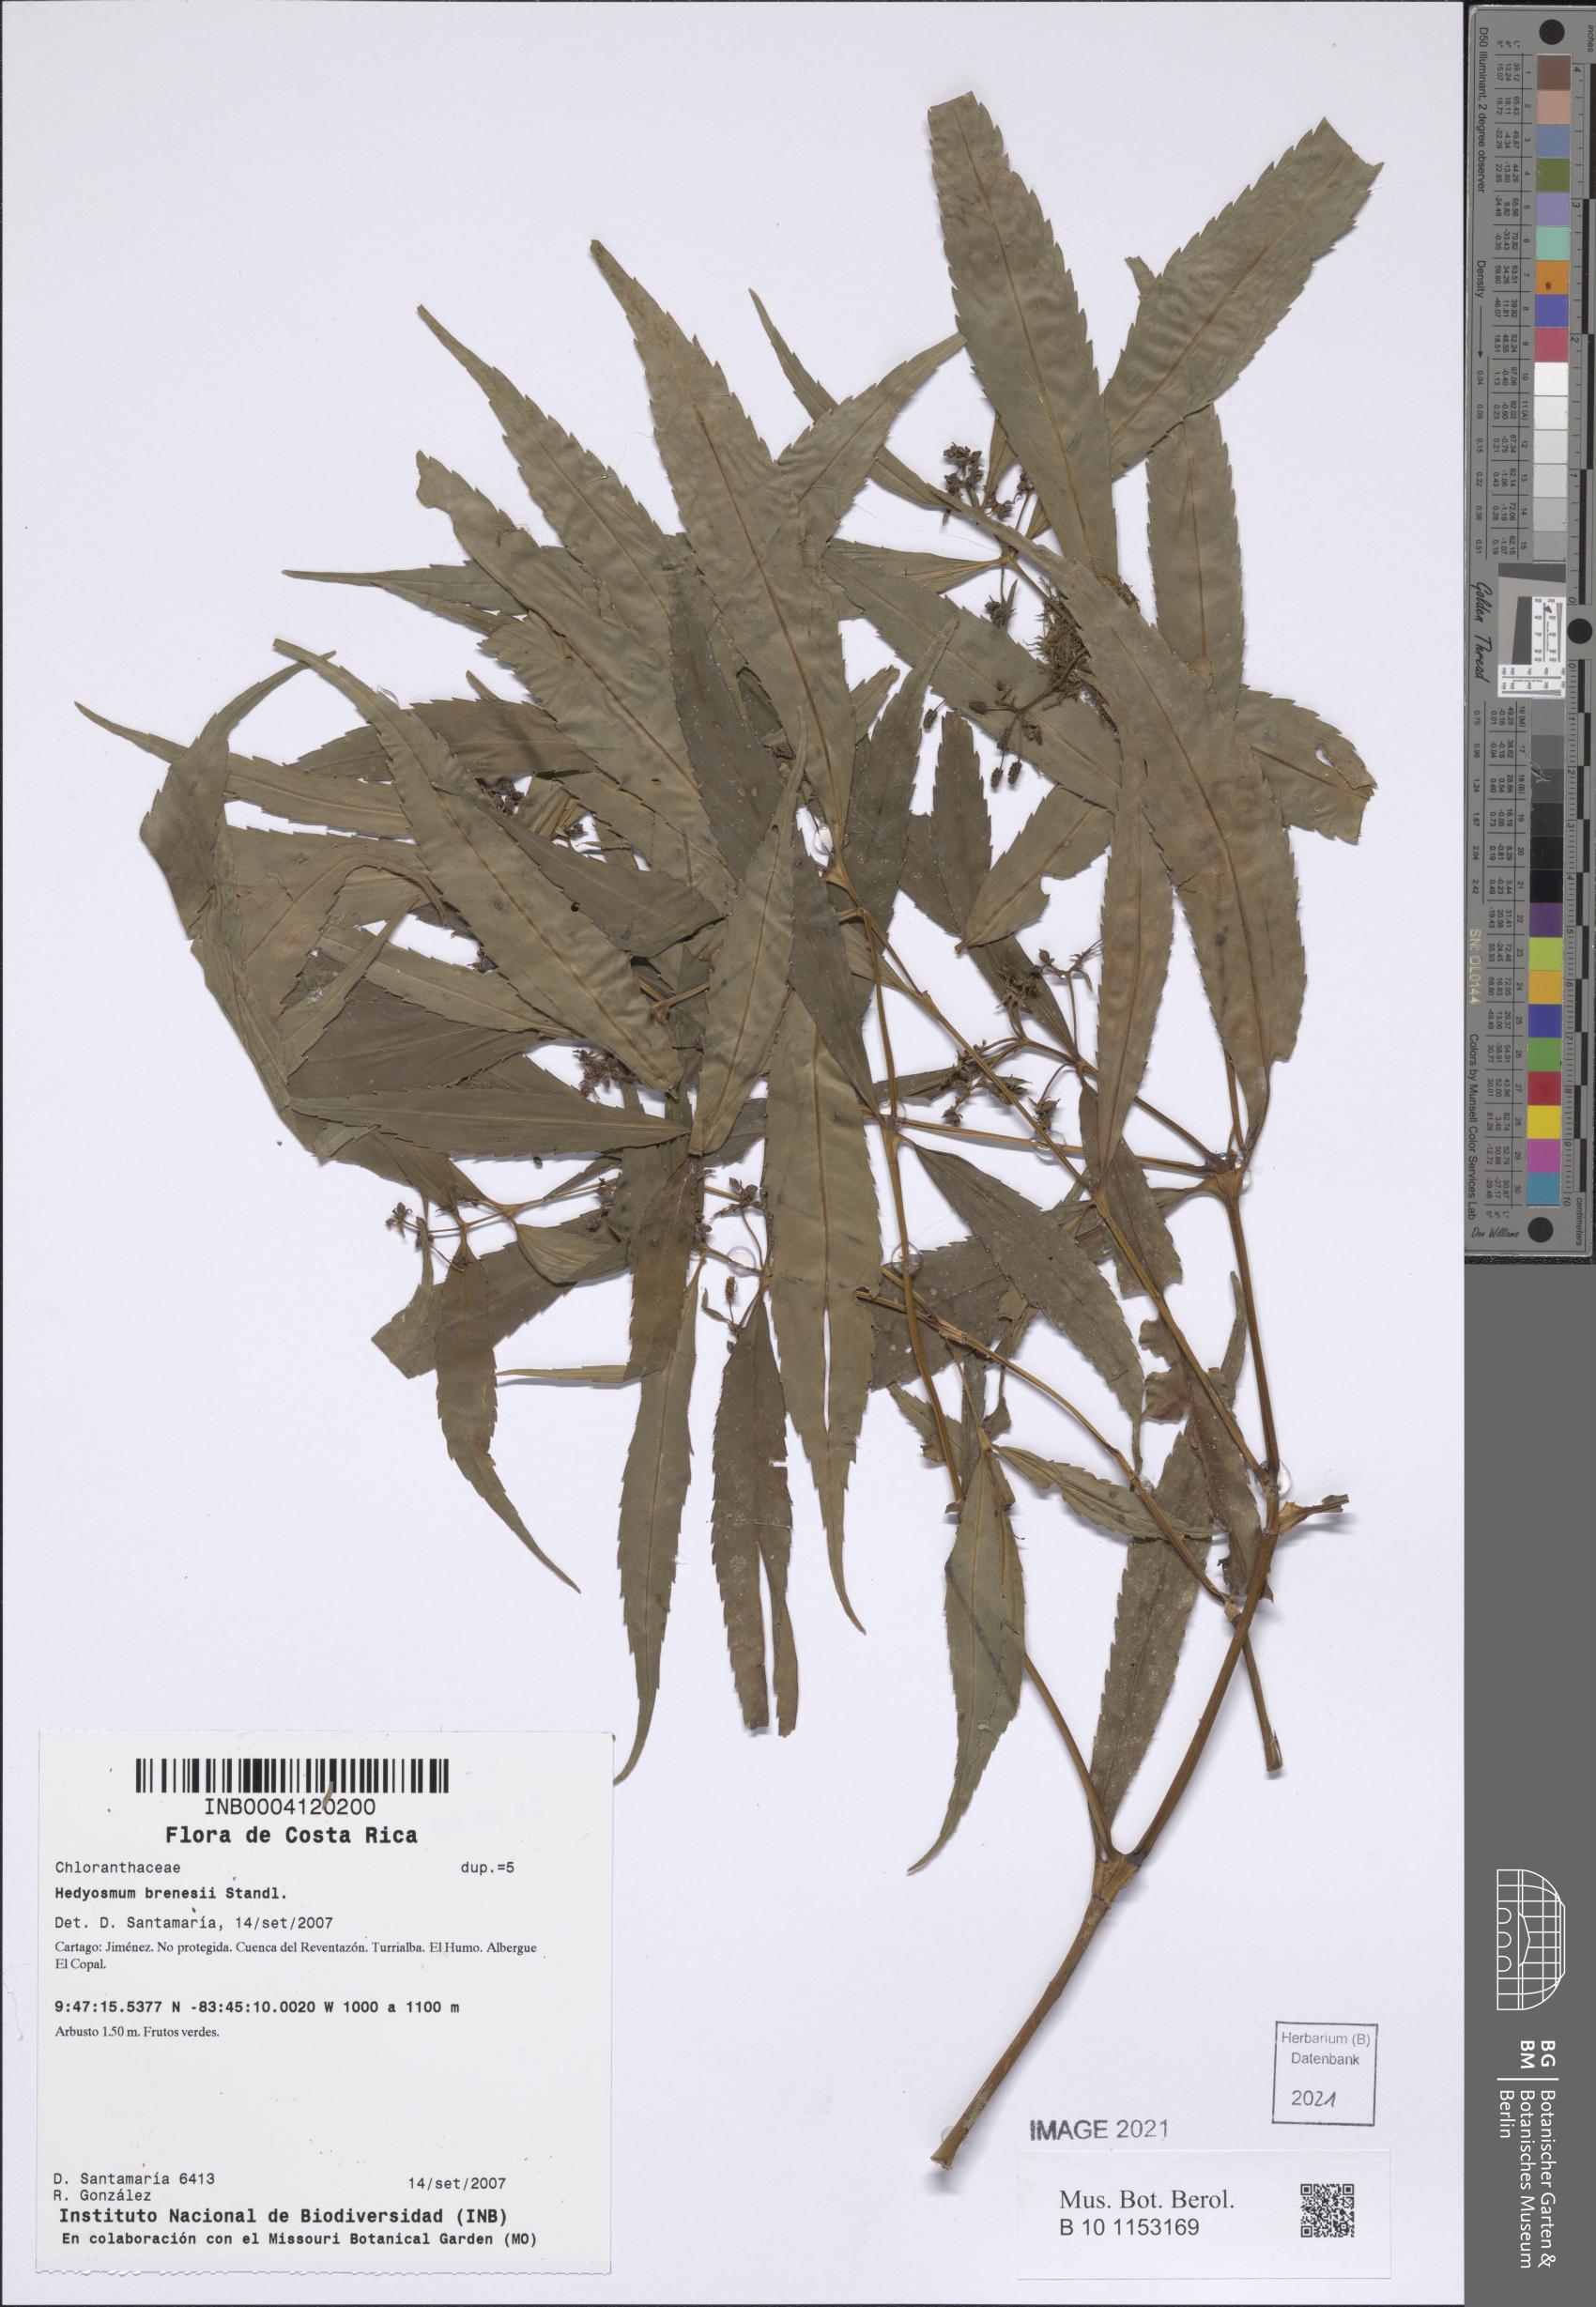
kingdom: Plantae
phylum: Tracheophyta
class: Magnoliopsida
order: Chloranthales
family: Chloranthaceae
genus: Hedyosmum
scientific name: Hedyosmum brenesii
